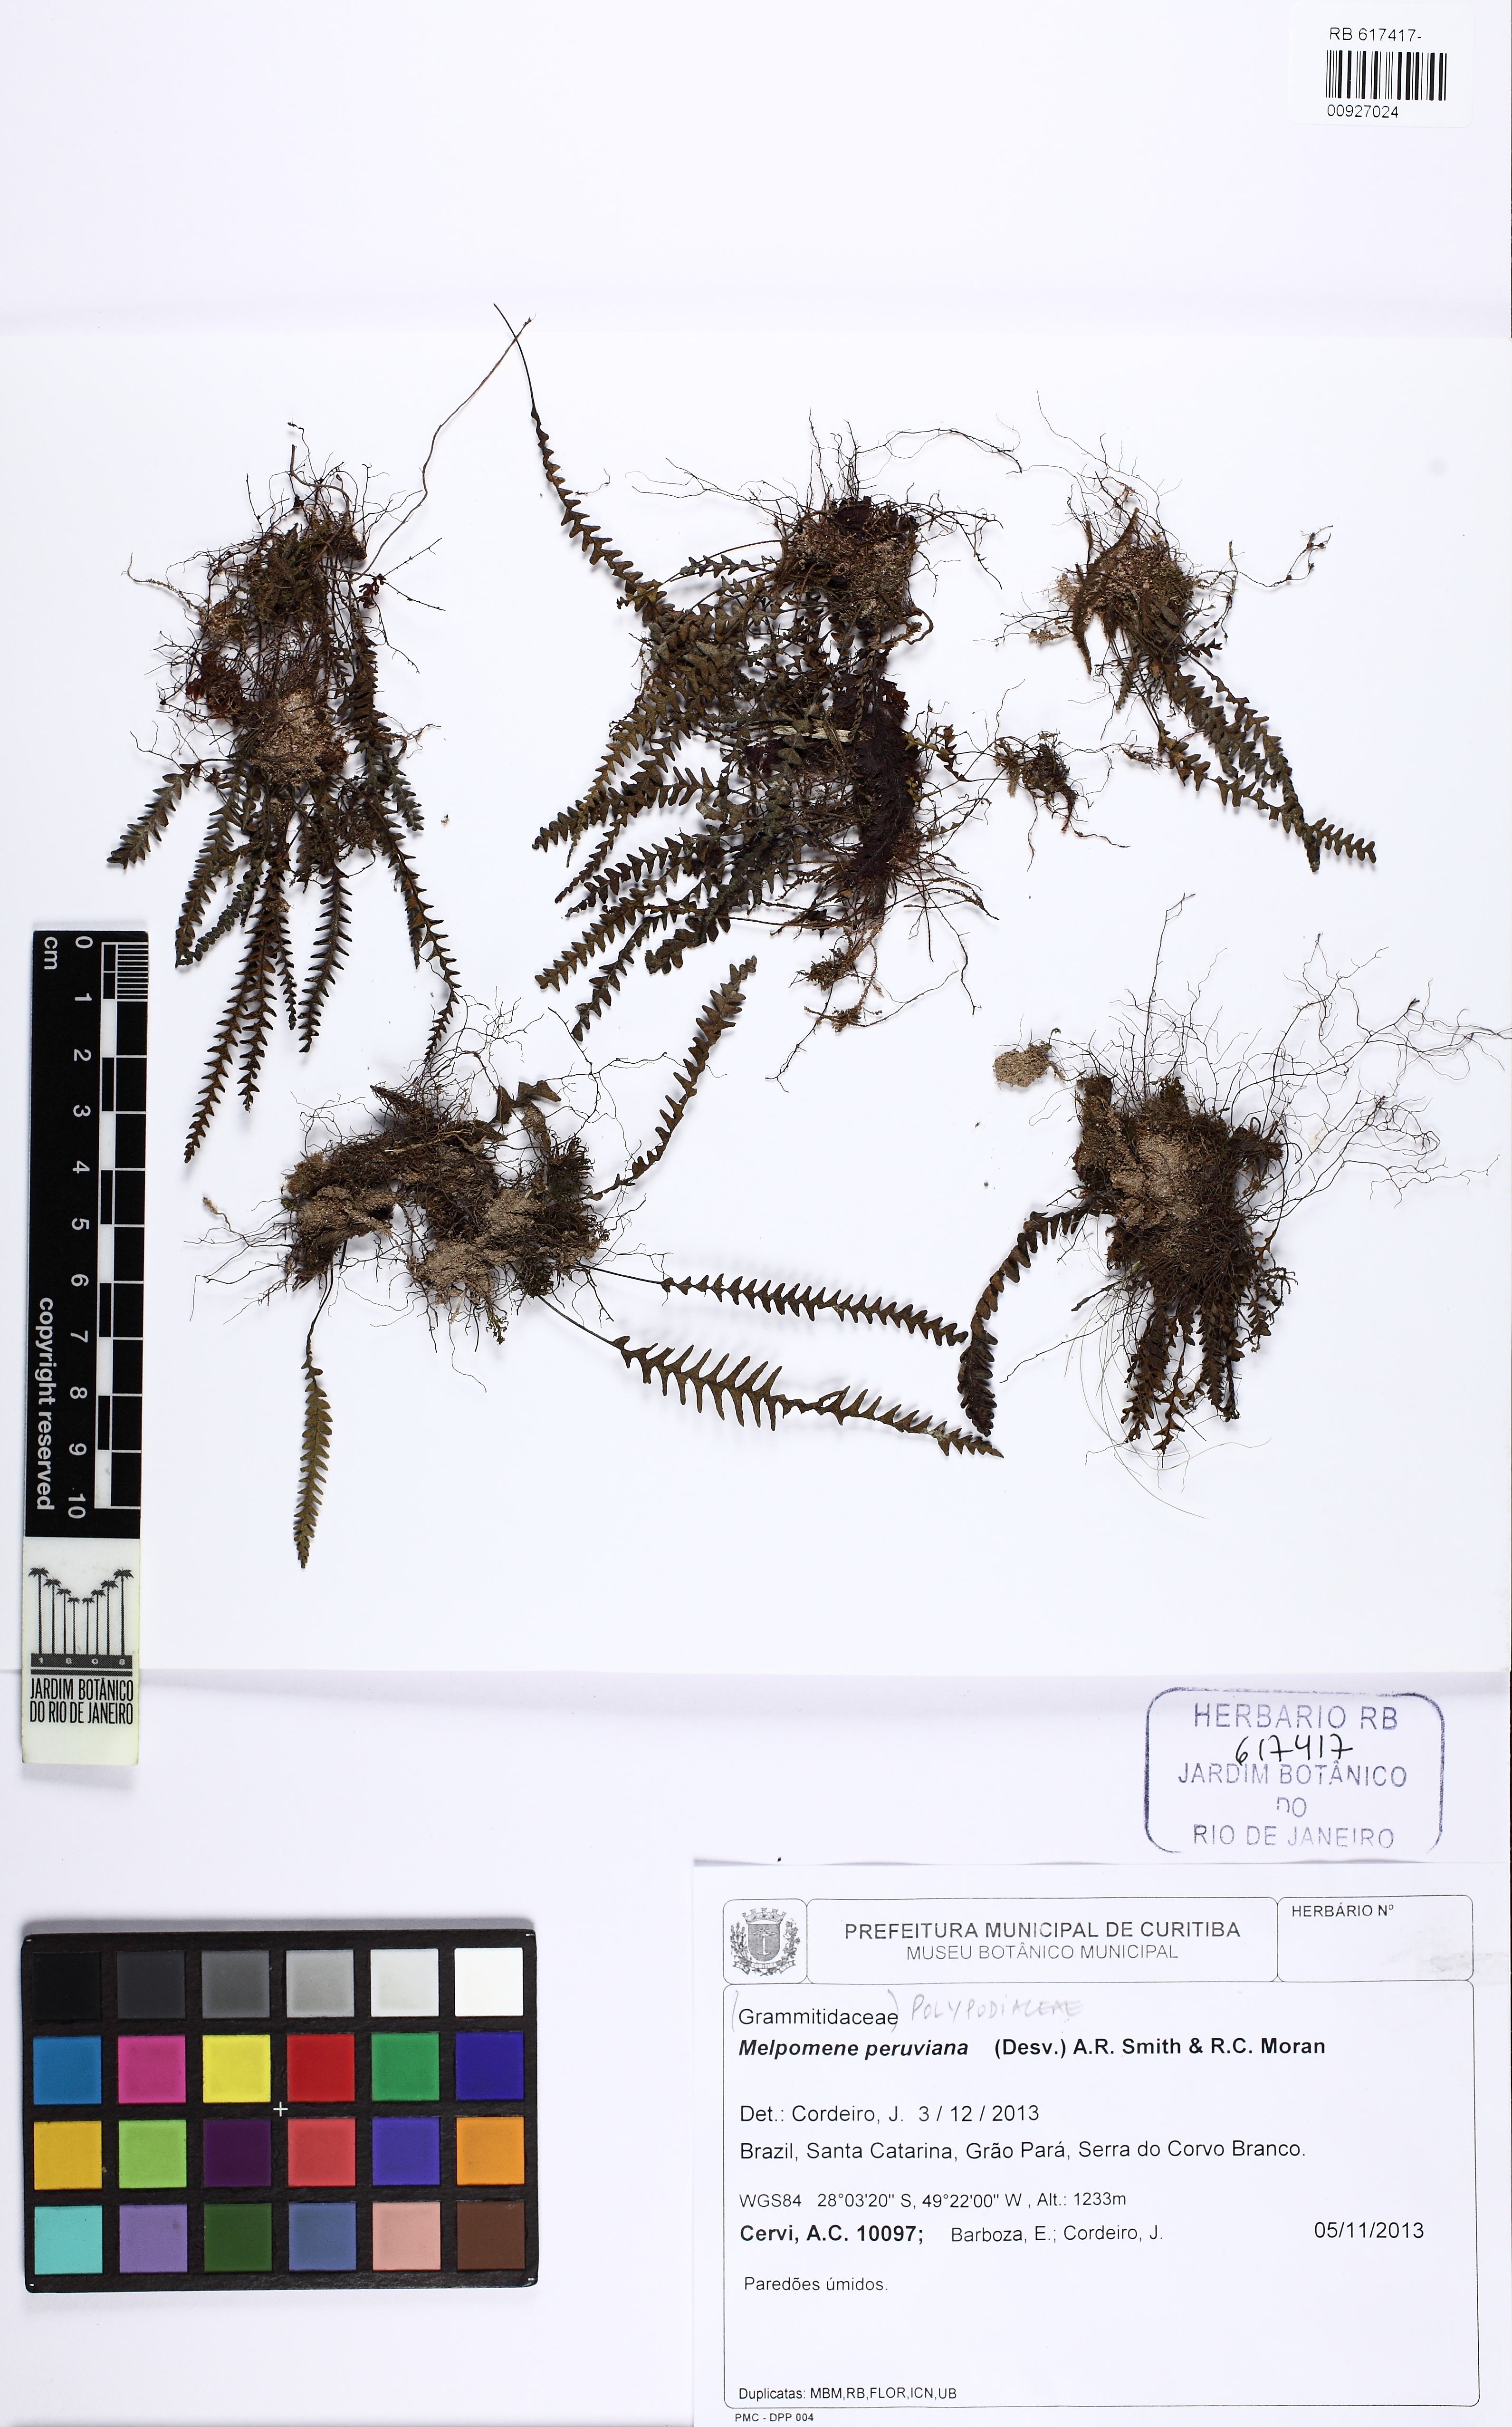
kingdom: Plantae
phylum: Tracheophyta
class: Polypodiopsida
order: Polypodiales
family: Polypodiaceae
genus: Melpomene
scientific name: Melpomene peruviana
